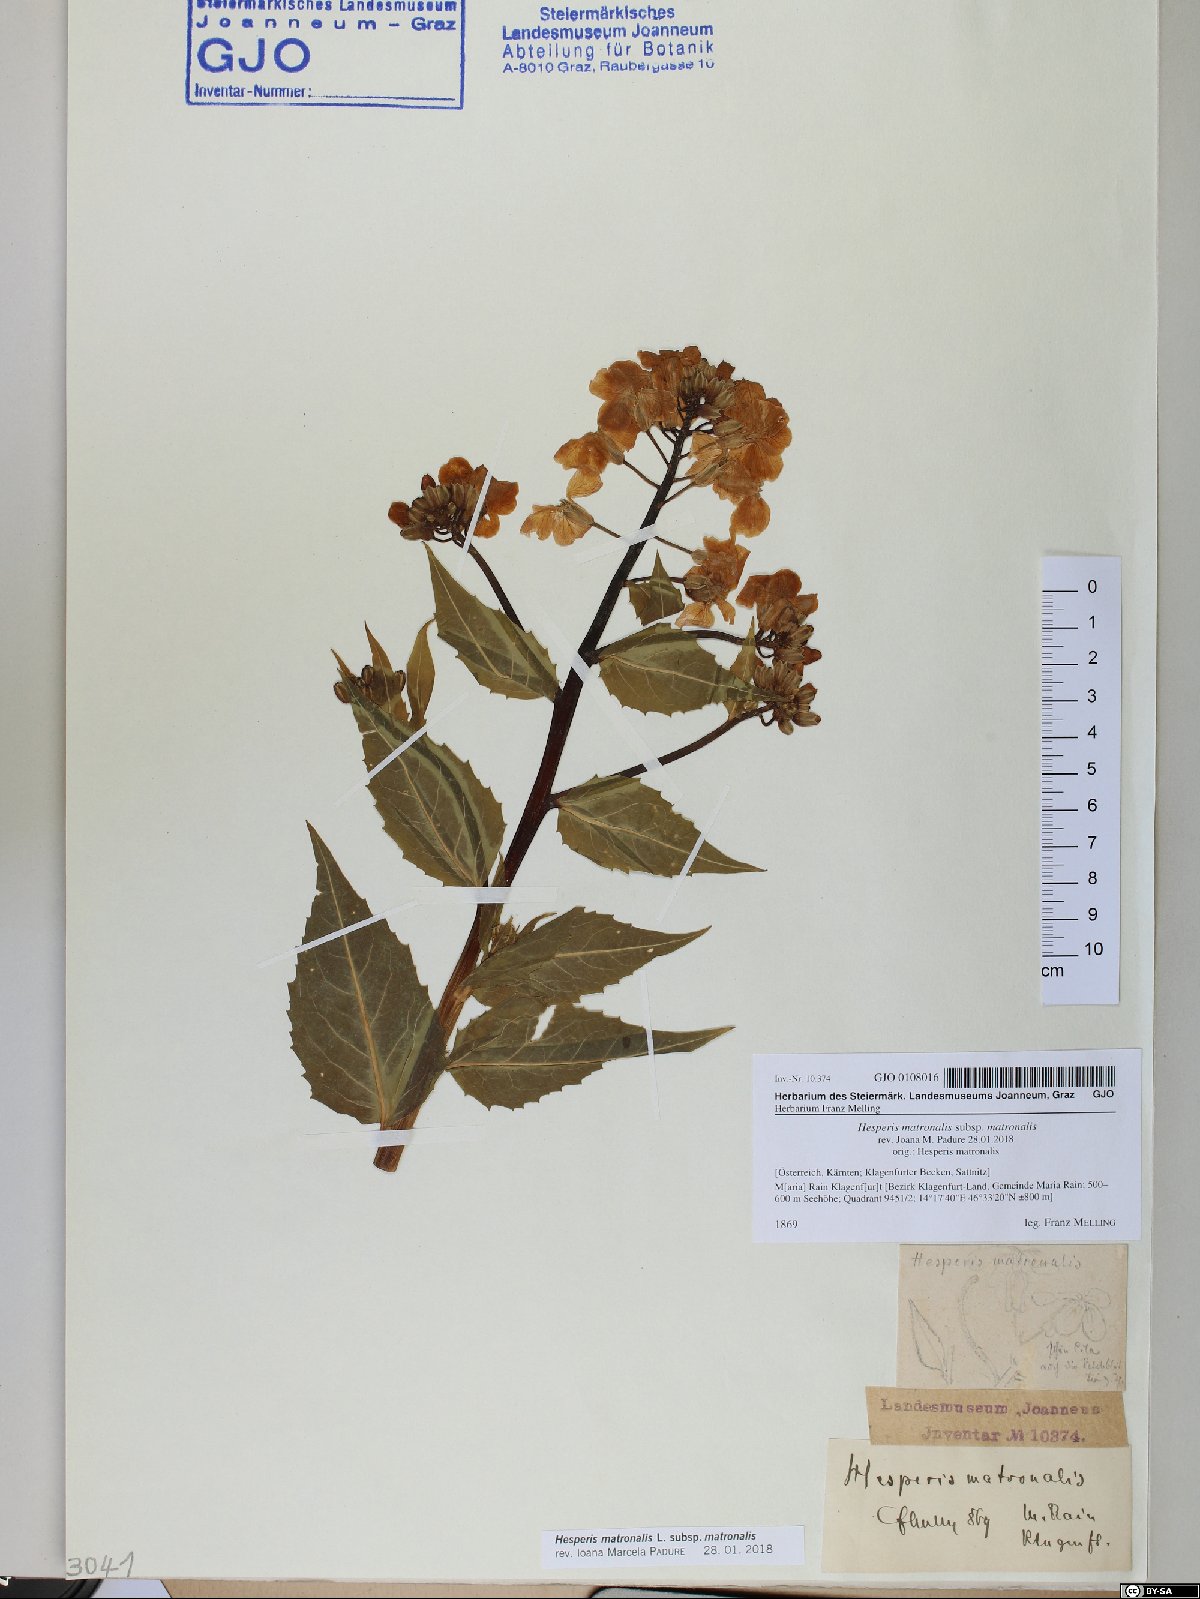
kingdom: Plantae
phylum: Tracheophyta
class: Magnoliopsida
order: Brassicales
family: Brassicaceae
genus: Hesperis
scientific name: Hesperis matronalis
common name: Dame's-violet
